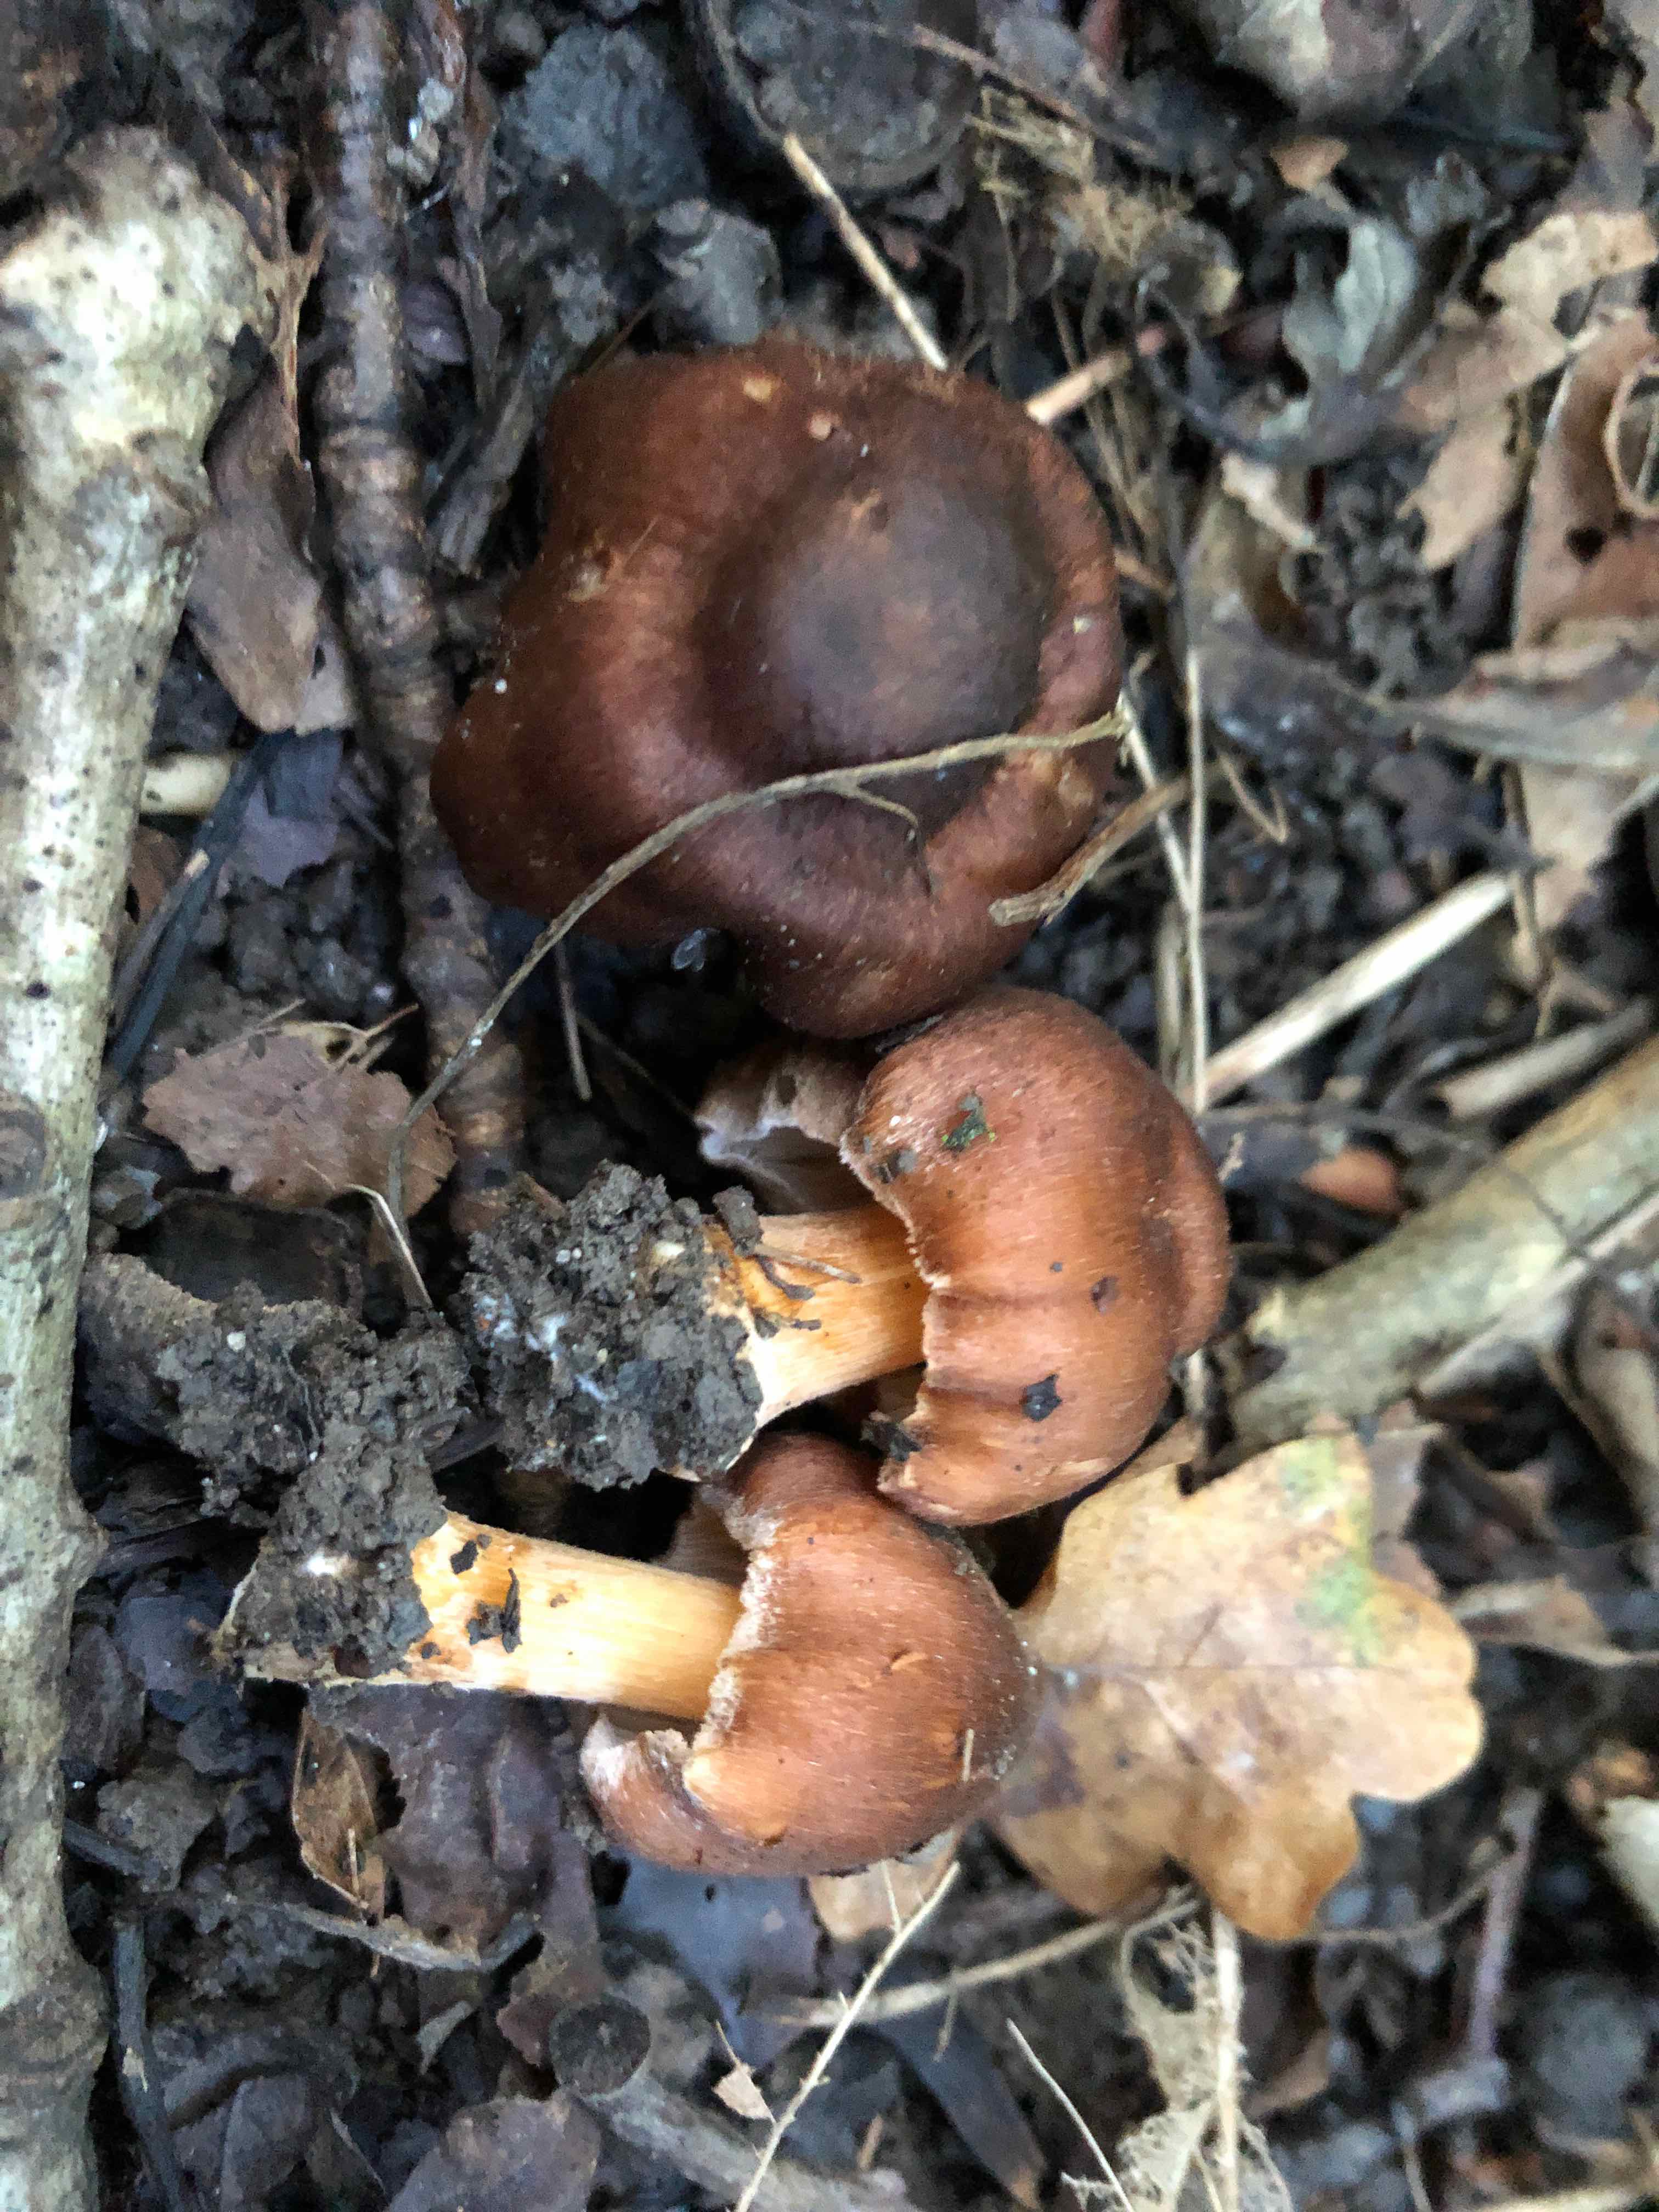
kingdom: Fungi
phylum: Basidiomycota
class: Agaricomycetes
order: Agaricales
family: Inocybaceae
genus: Inosperma
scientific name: Inosperma fulvum
